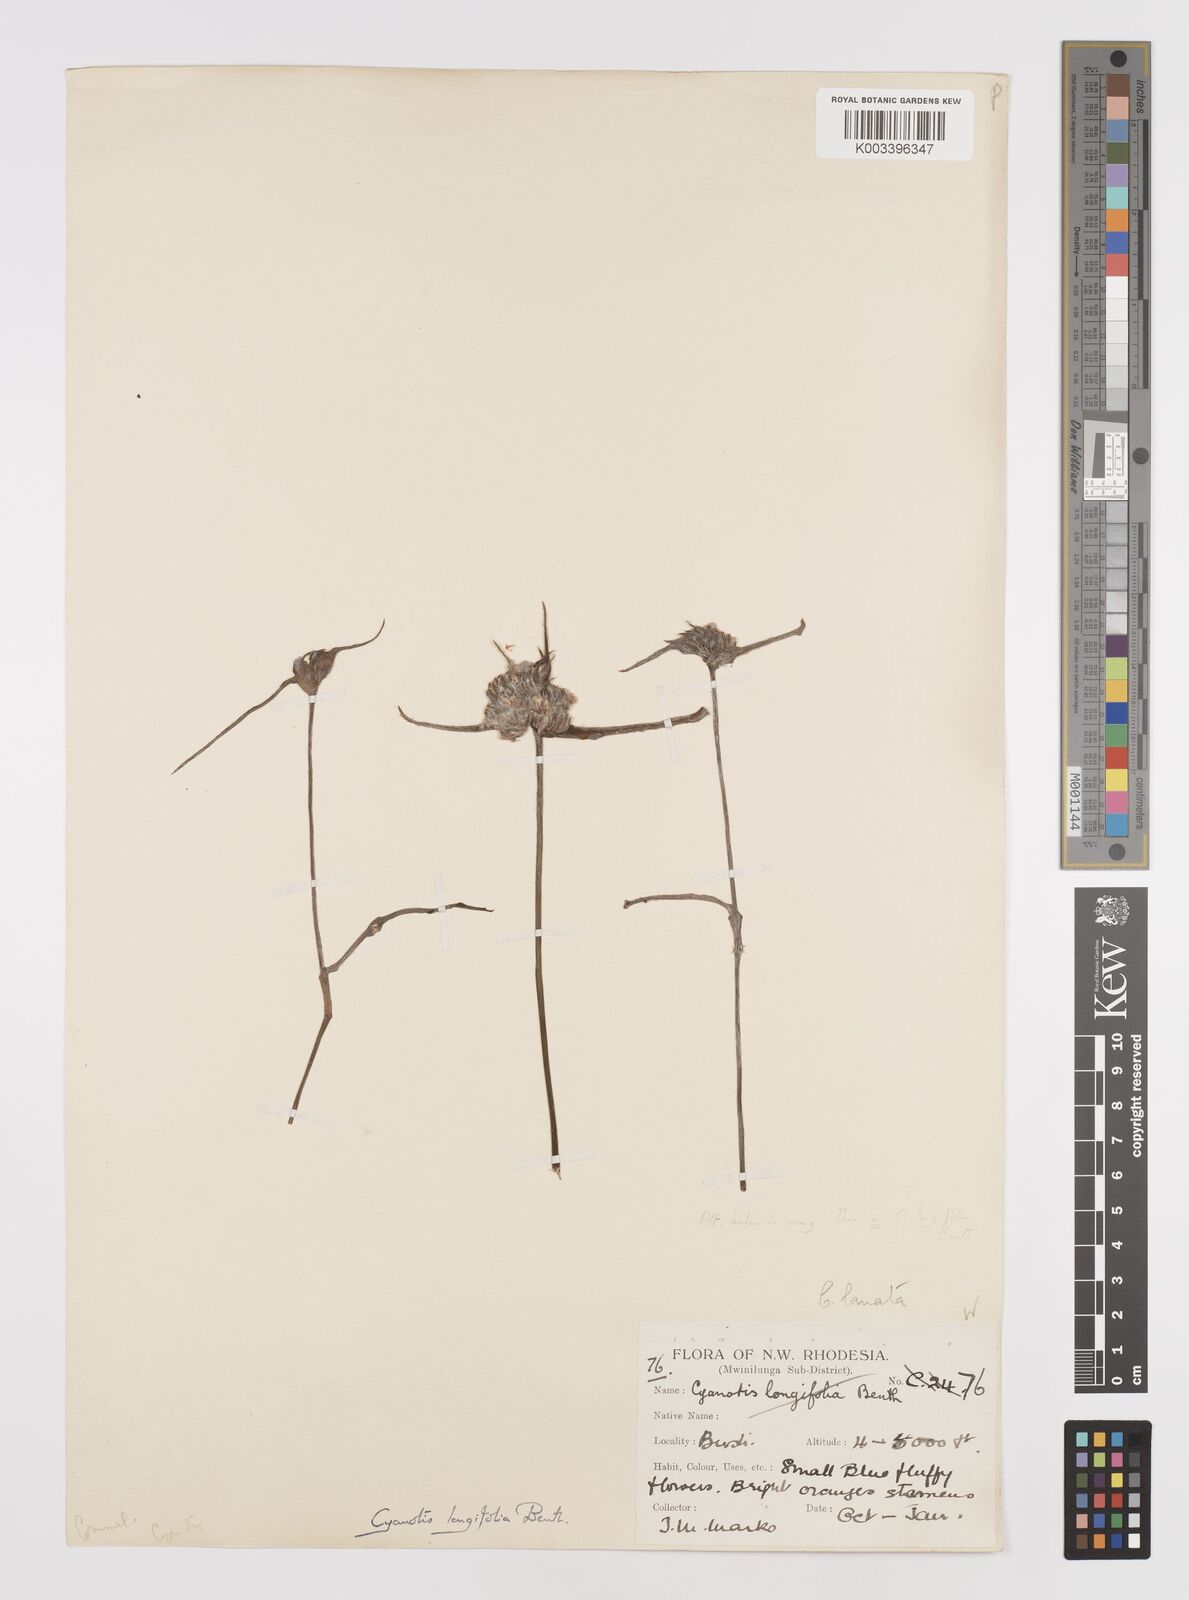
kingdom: Plantae
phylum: Tracheophyta
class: Liliopsida
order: Commelinales
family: Commelinaceae
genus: Cyanotis
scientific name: Cyanotis longifolia
